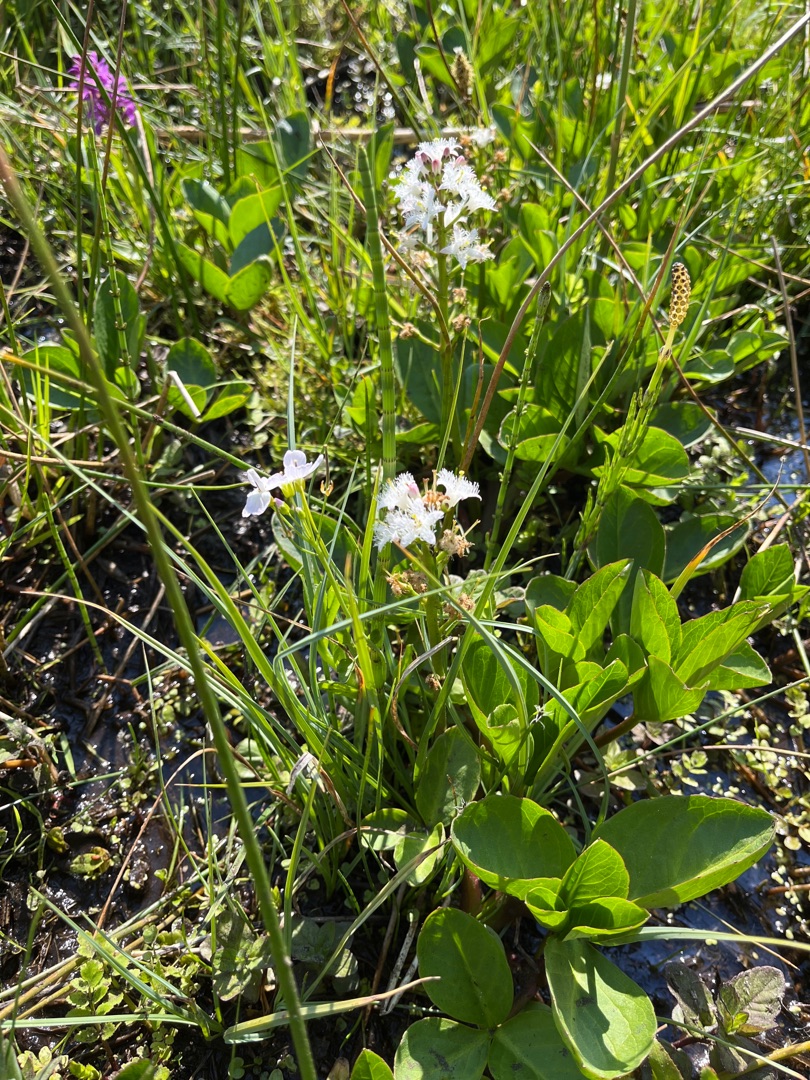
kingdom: Plantae
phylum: Tracheophyta
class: Magnoliopsida
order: Asterales
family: Menyanthaceae
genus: Menyanthes
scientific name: Menyanthes trifoliata
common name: Bukkeblad
